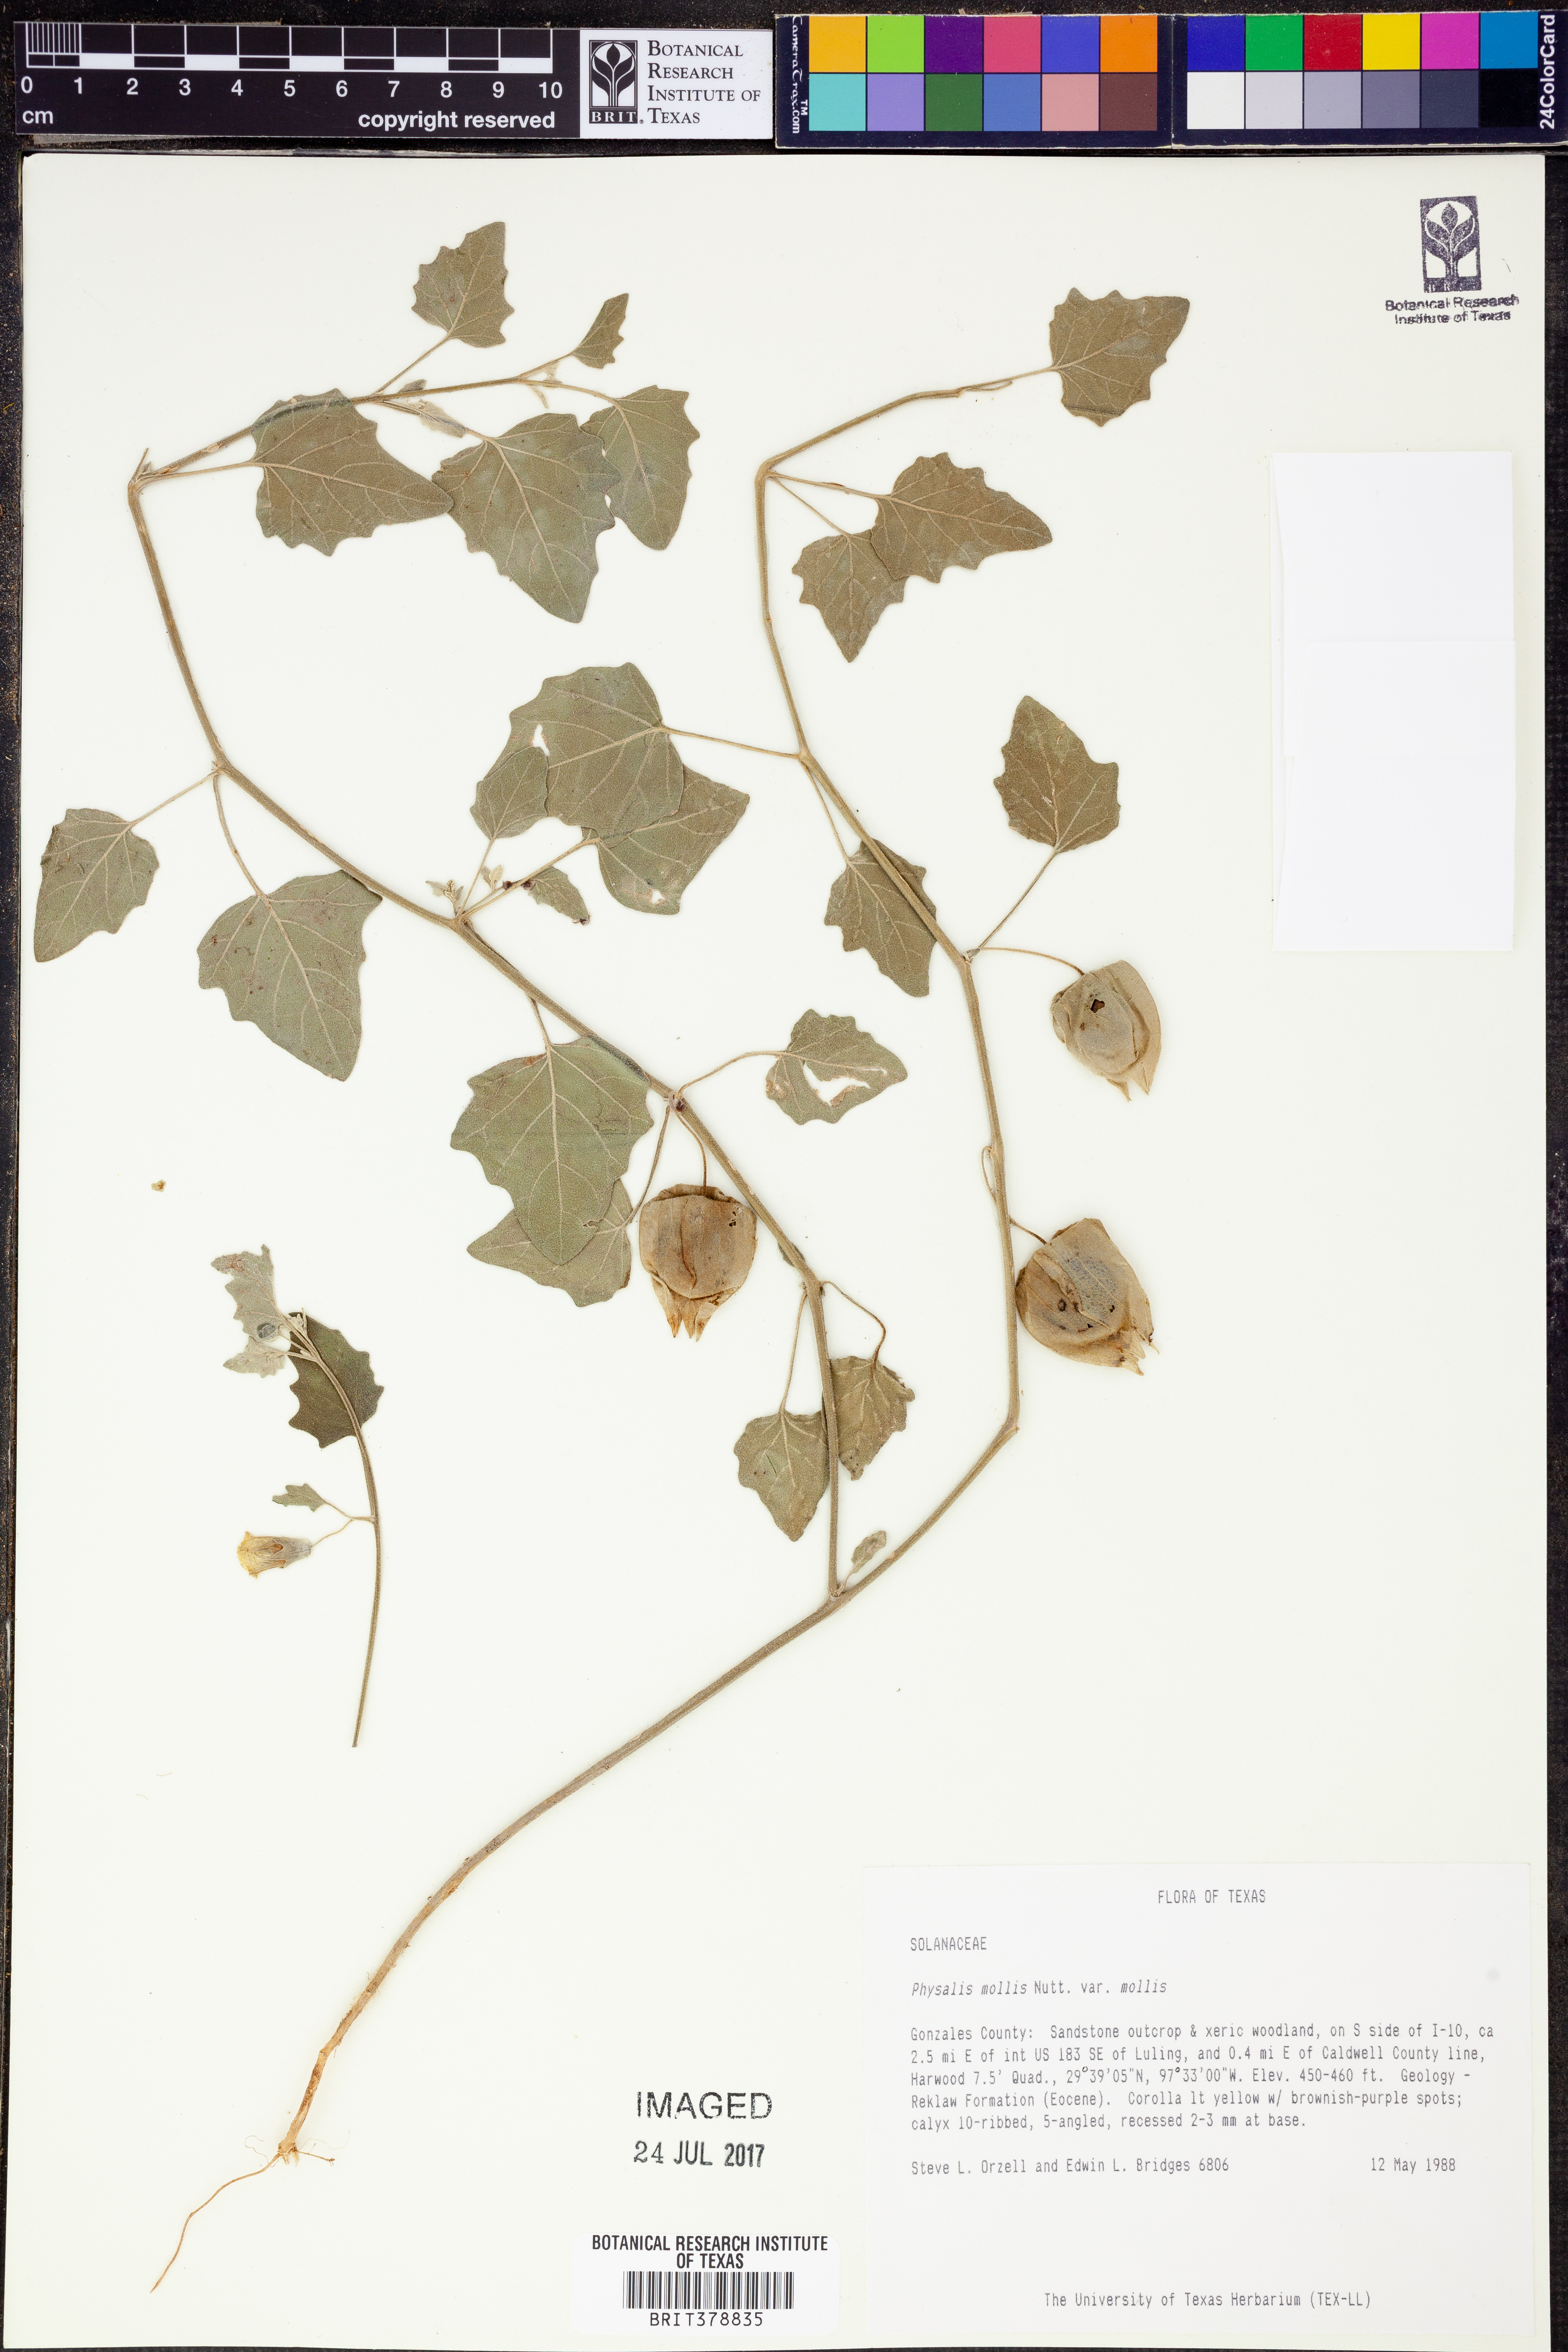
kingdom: Plantae
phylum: Tracheophyta
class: Magnoliopsida
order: Solanales
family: Solanaceae
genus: Physalis
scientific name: Physalis mollis
